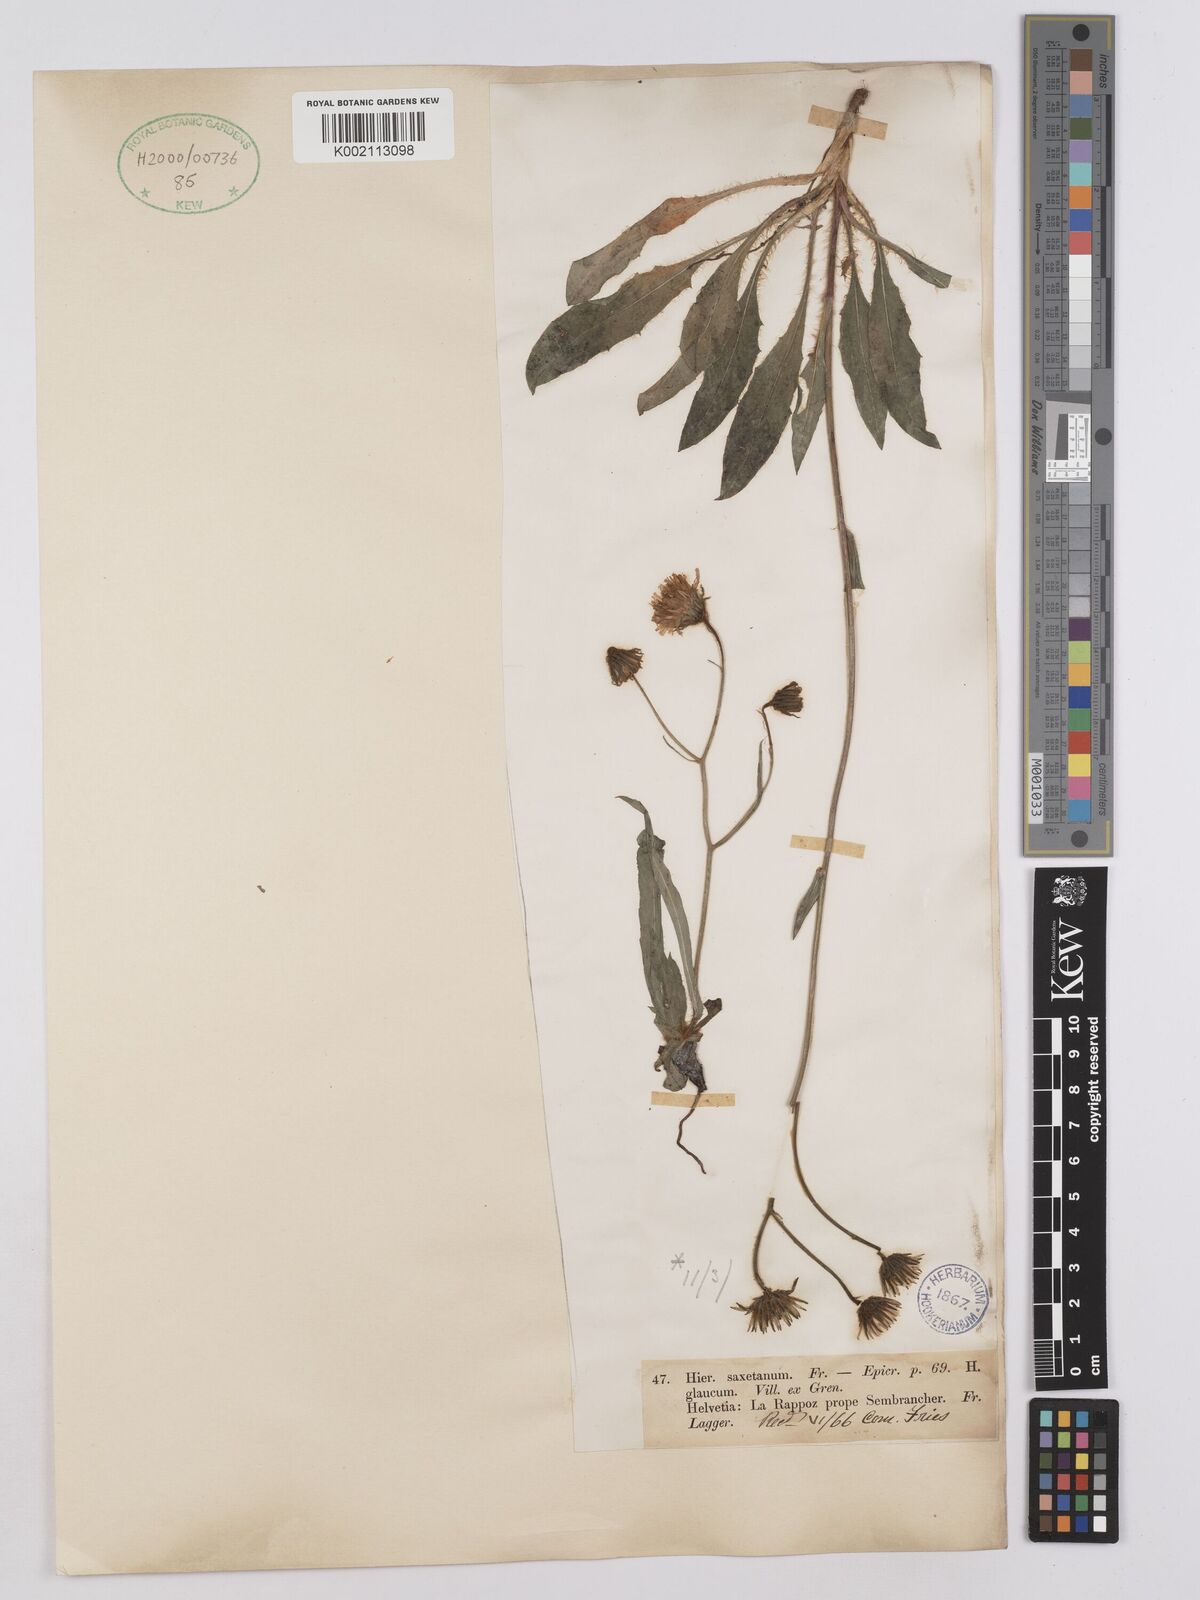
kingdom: Plantae
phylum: Tracheophyta
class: Magnoliopsida
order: Asterales
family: Asteraceae
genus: Hieracium
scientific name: Hieracium glaucum
